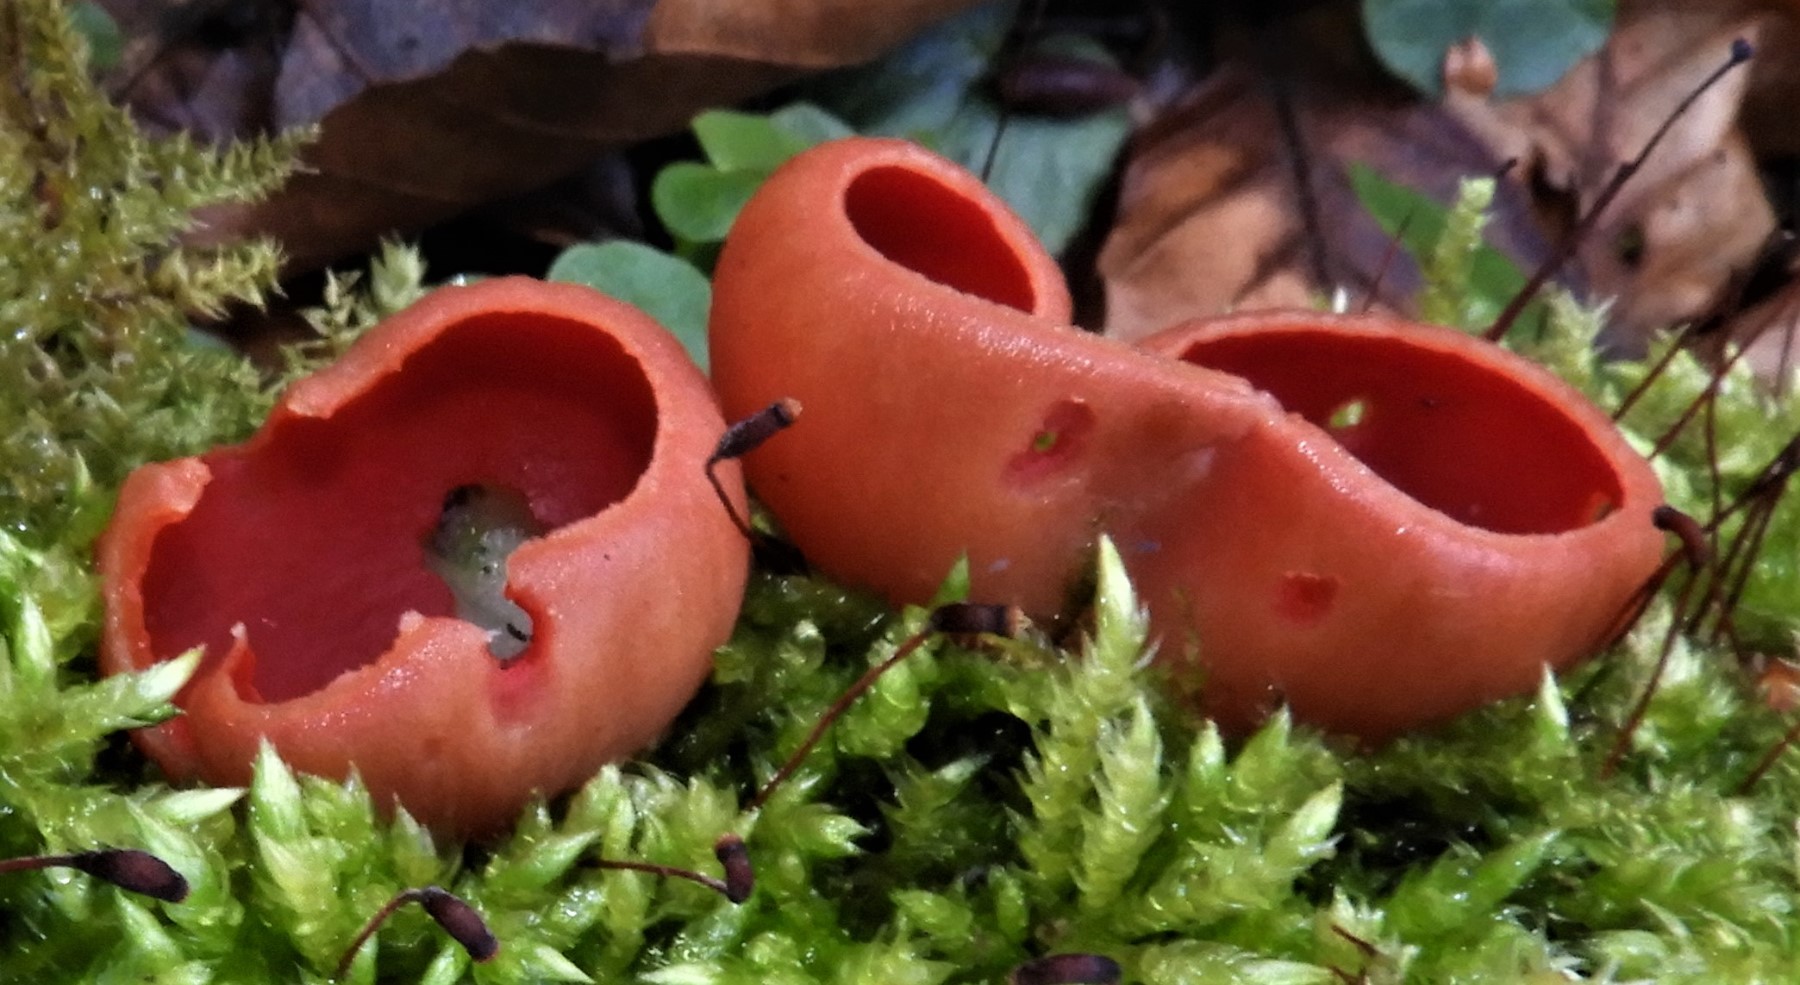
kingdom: Fungi
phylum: Ascomycota
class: Pezizomycetes
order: Pezizales
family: Sarcoscyphaceae
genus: Sarcoscypha
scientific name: Sarcoscypha austriaca
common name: krølhåret pragtbæger
